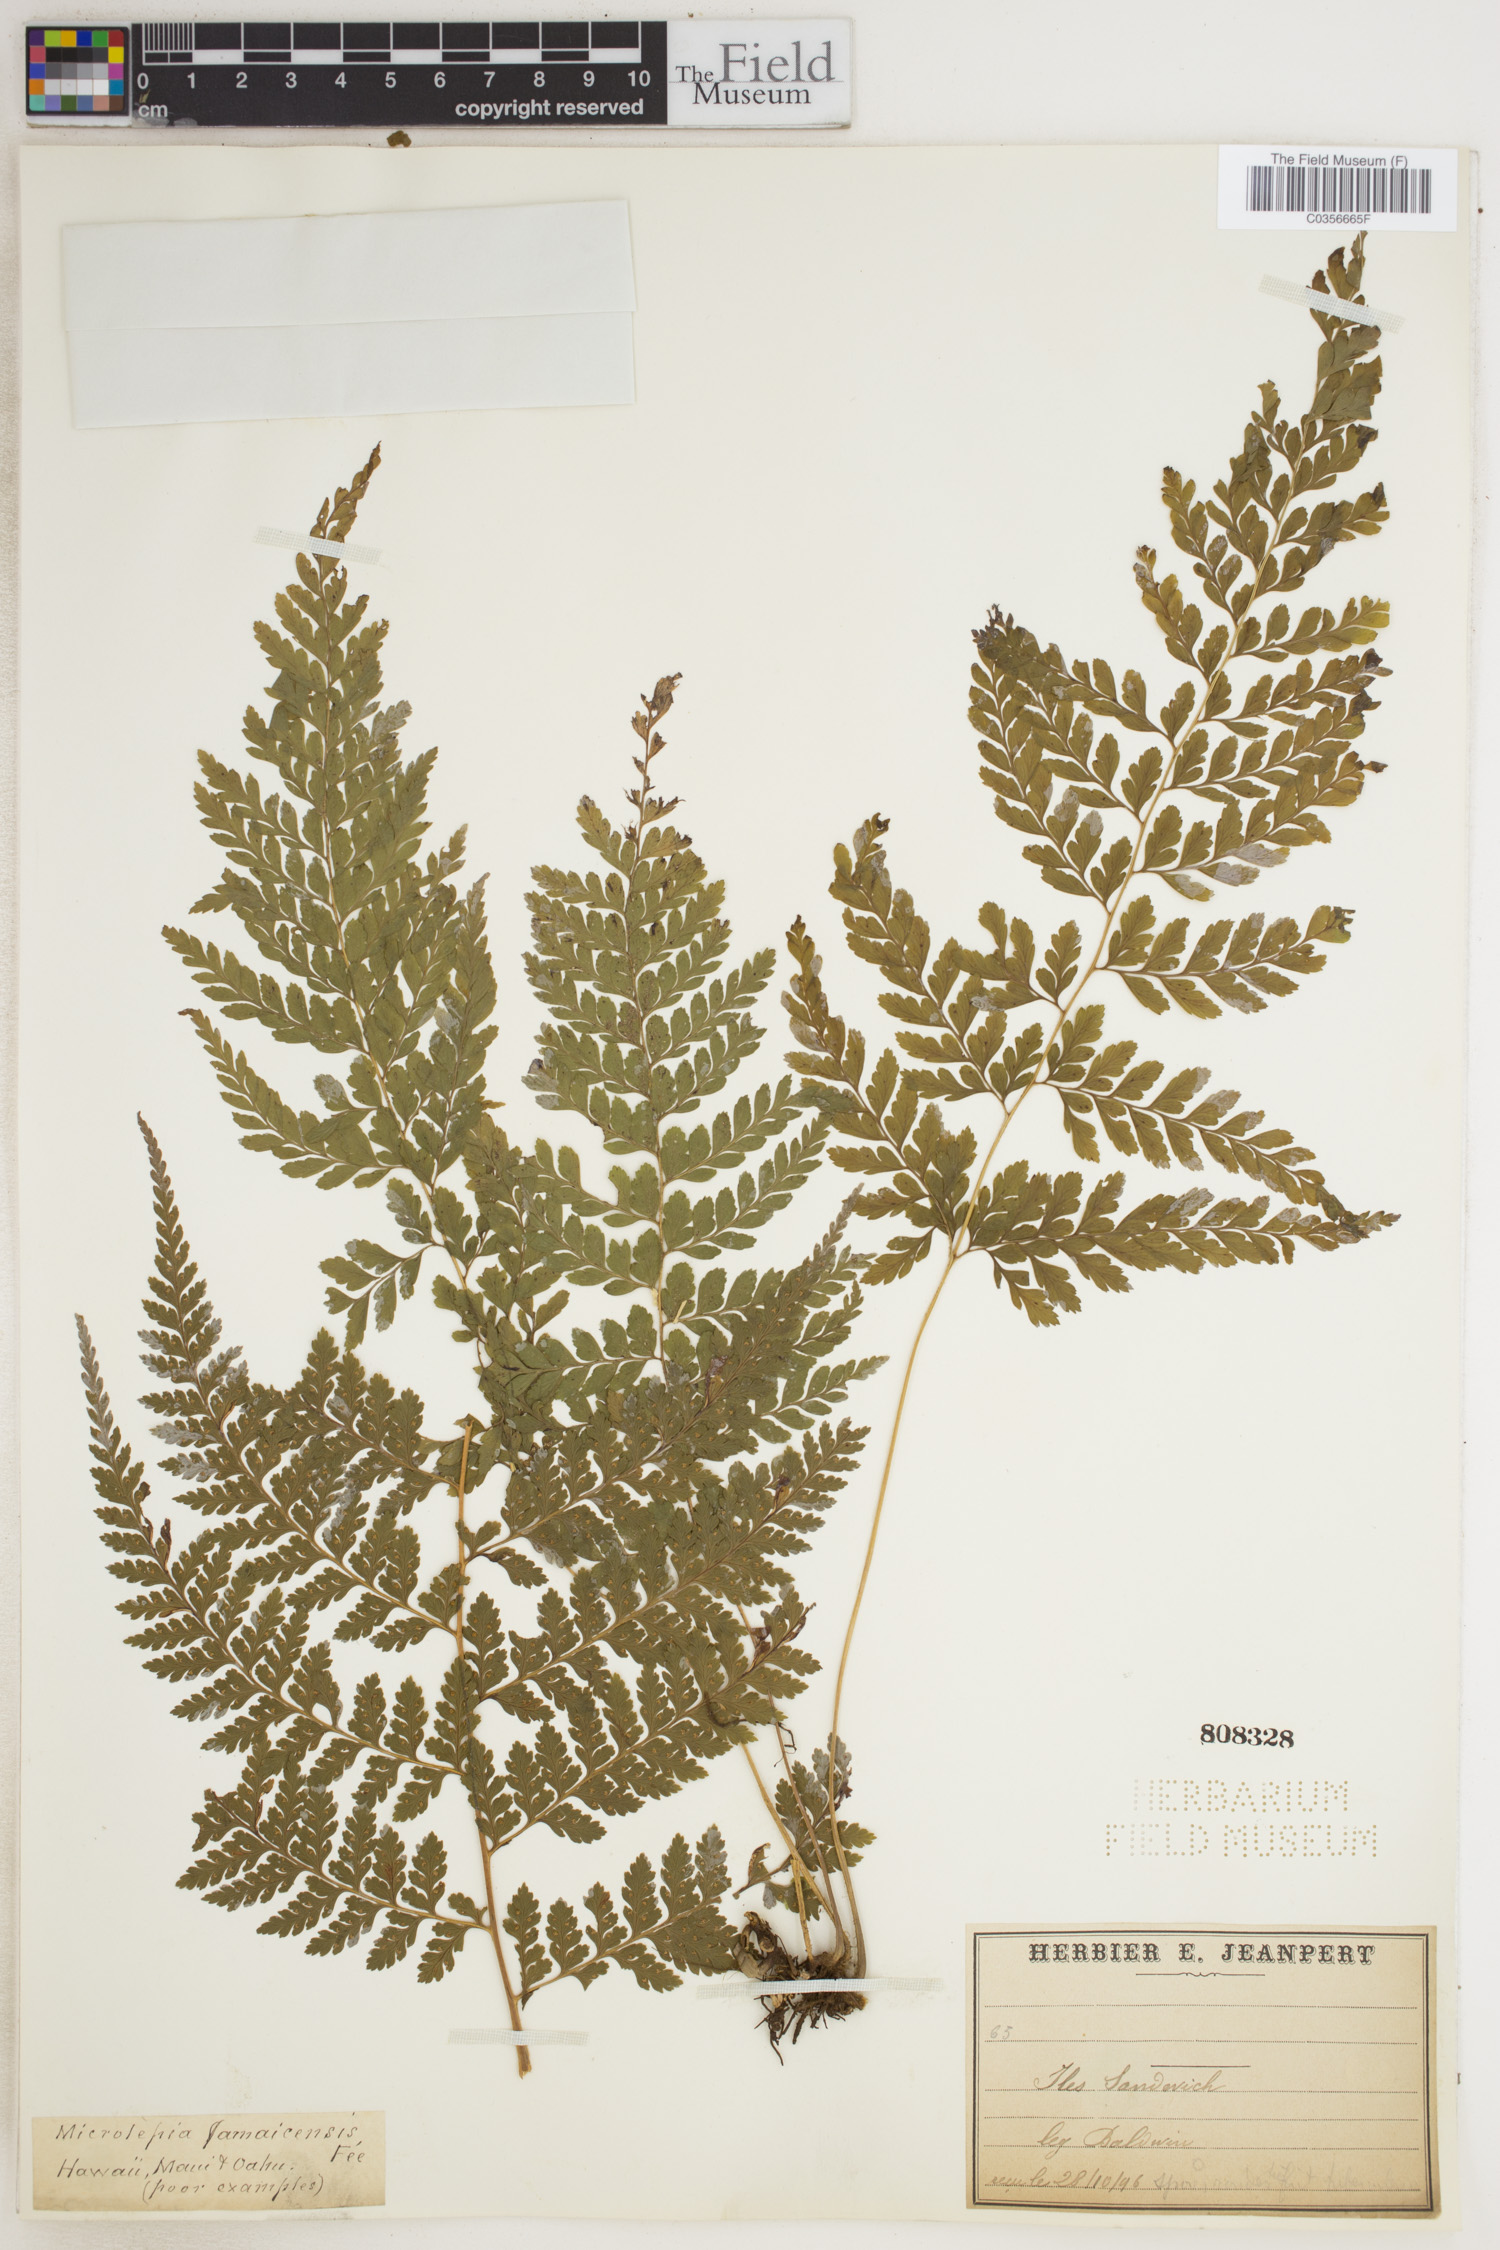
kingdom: Plantae
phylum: Tracheophyta
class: Polypodiopsida
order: Polypodiales
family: Dennstaedtiaceae
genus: Microlepia
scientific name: Microlepia speluncae
